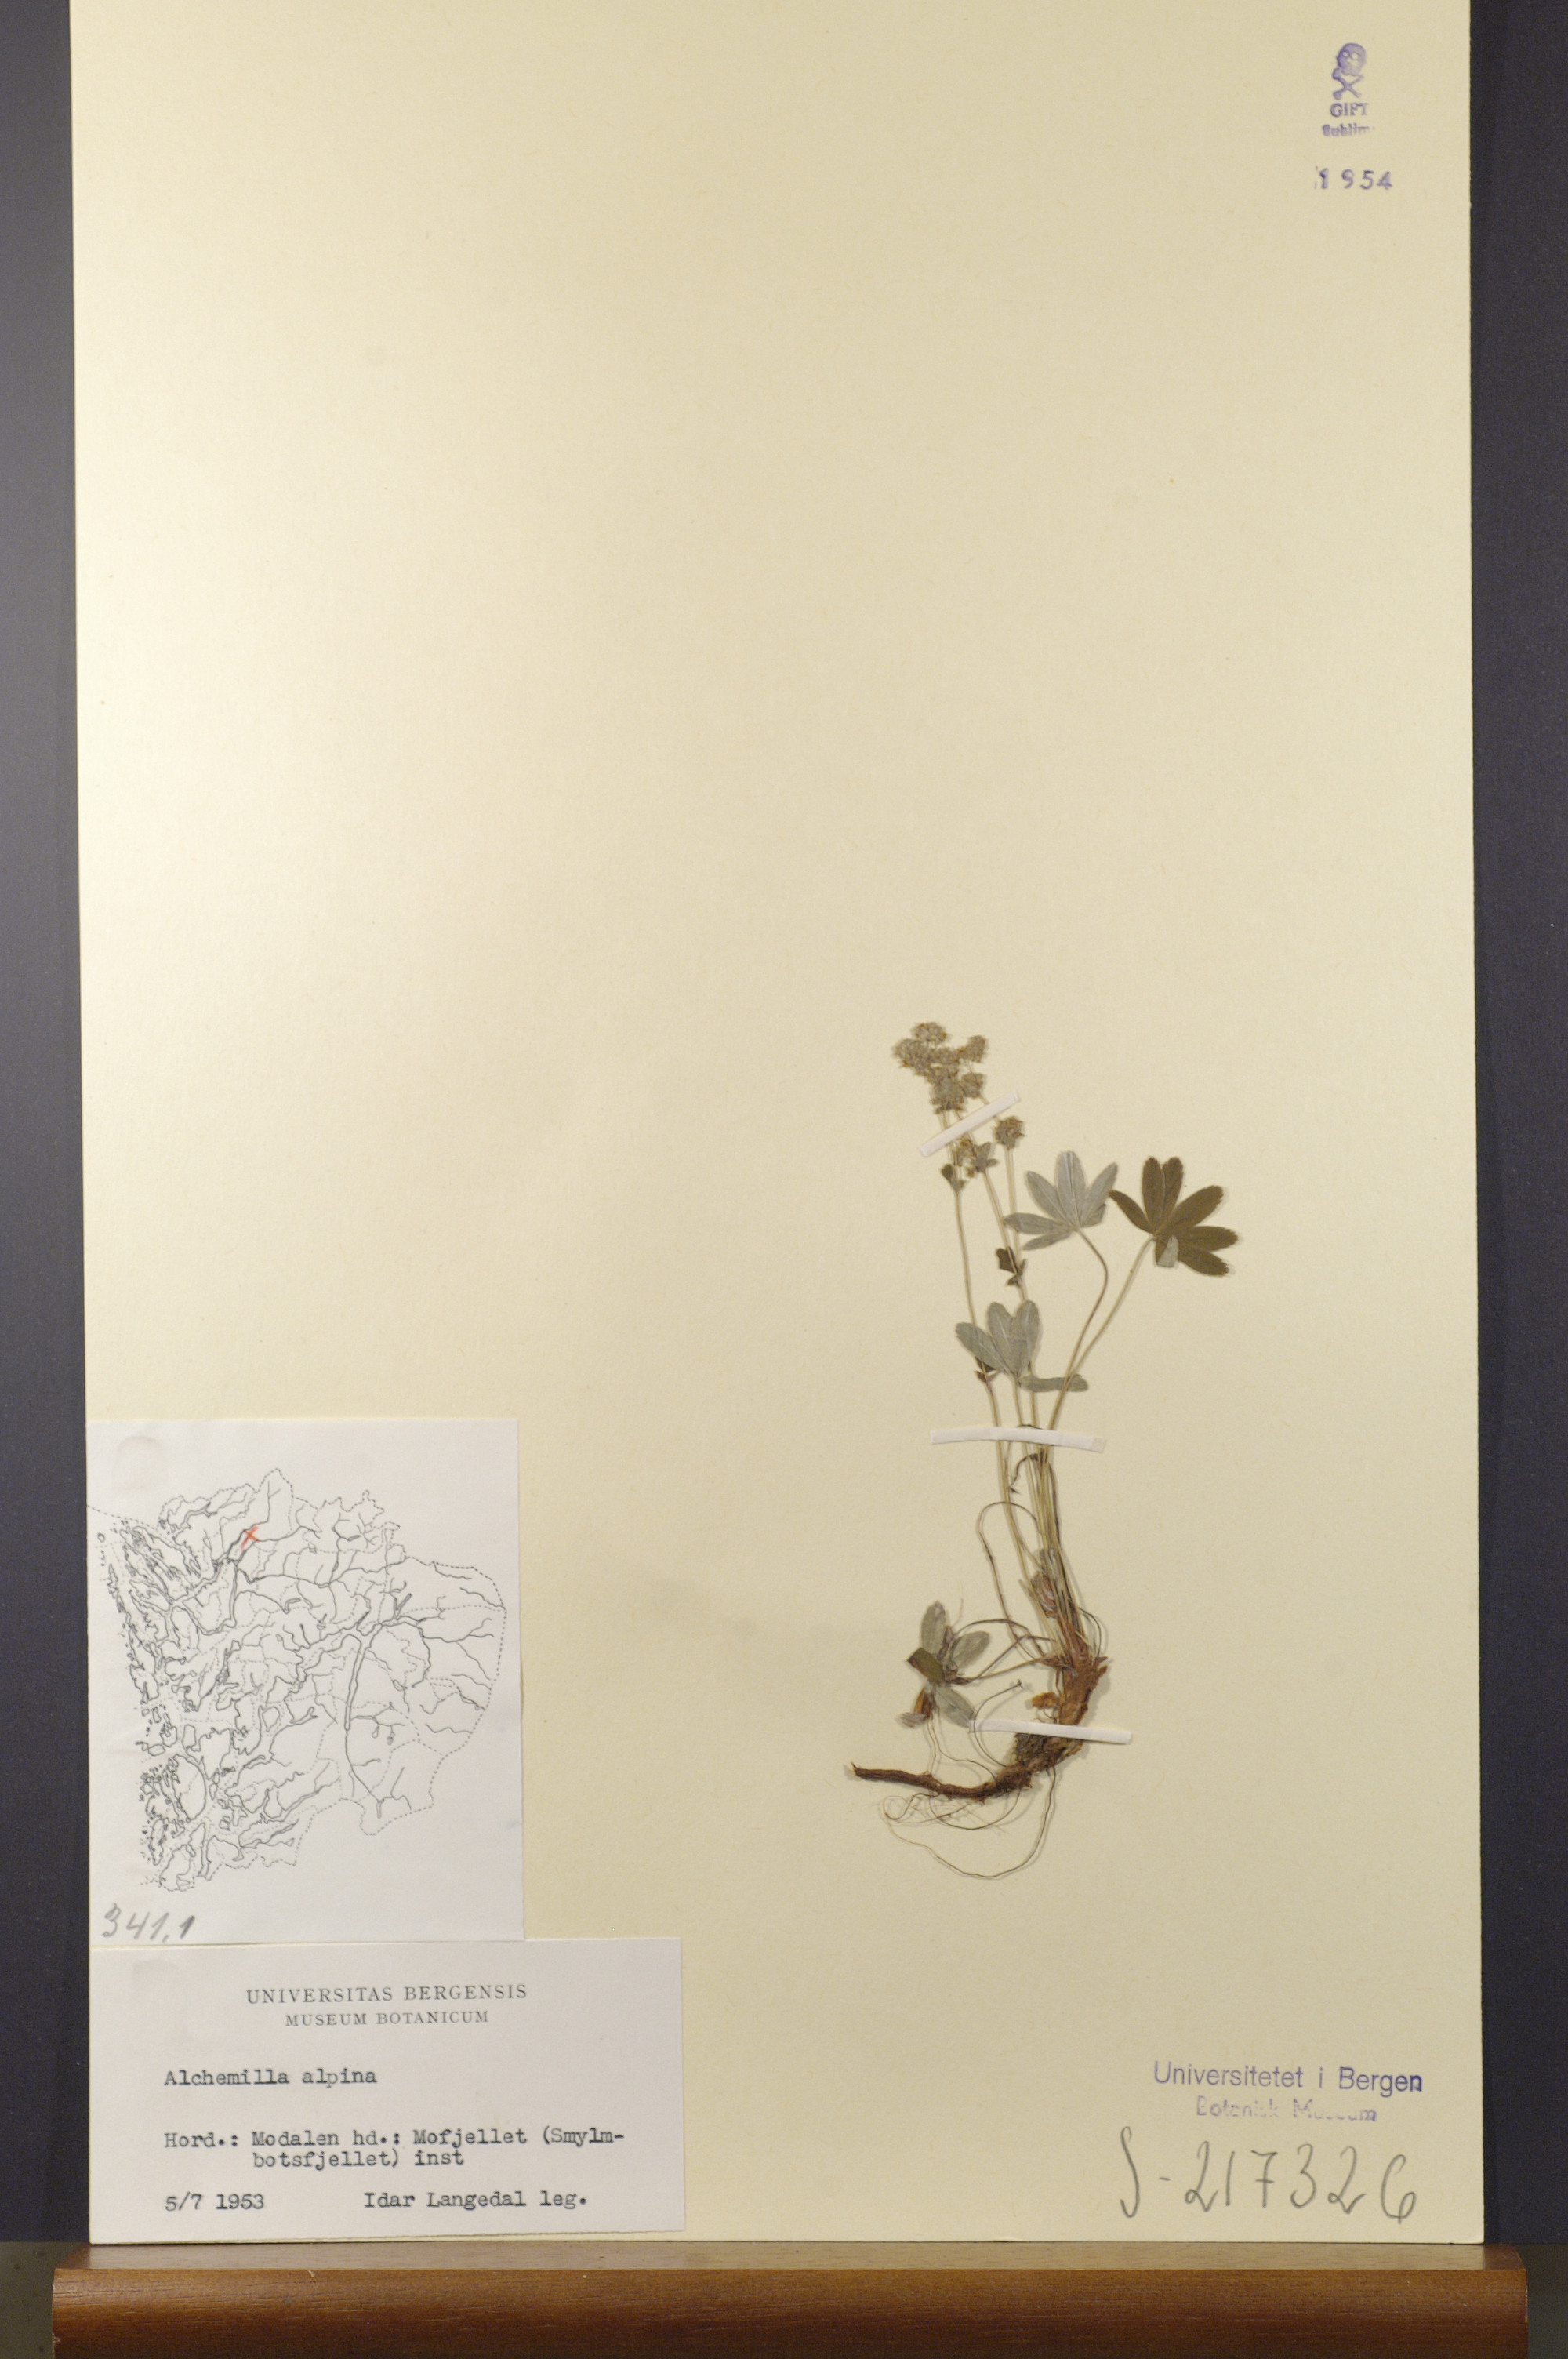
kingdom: Plantae
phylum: Tracheophyta
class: Magnoliopsida
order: Rosales
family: Rosaceae
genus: Alchemilla
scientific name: Alchemilla alpina
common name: Alpine lady's-mantle
